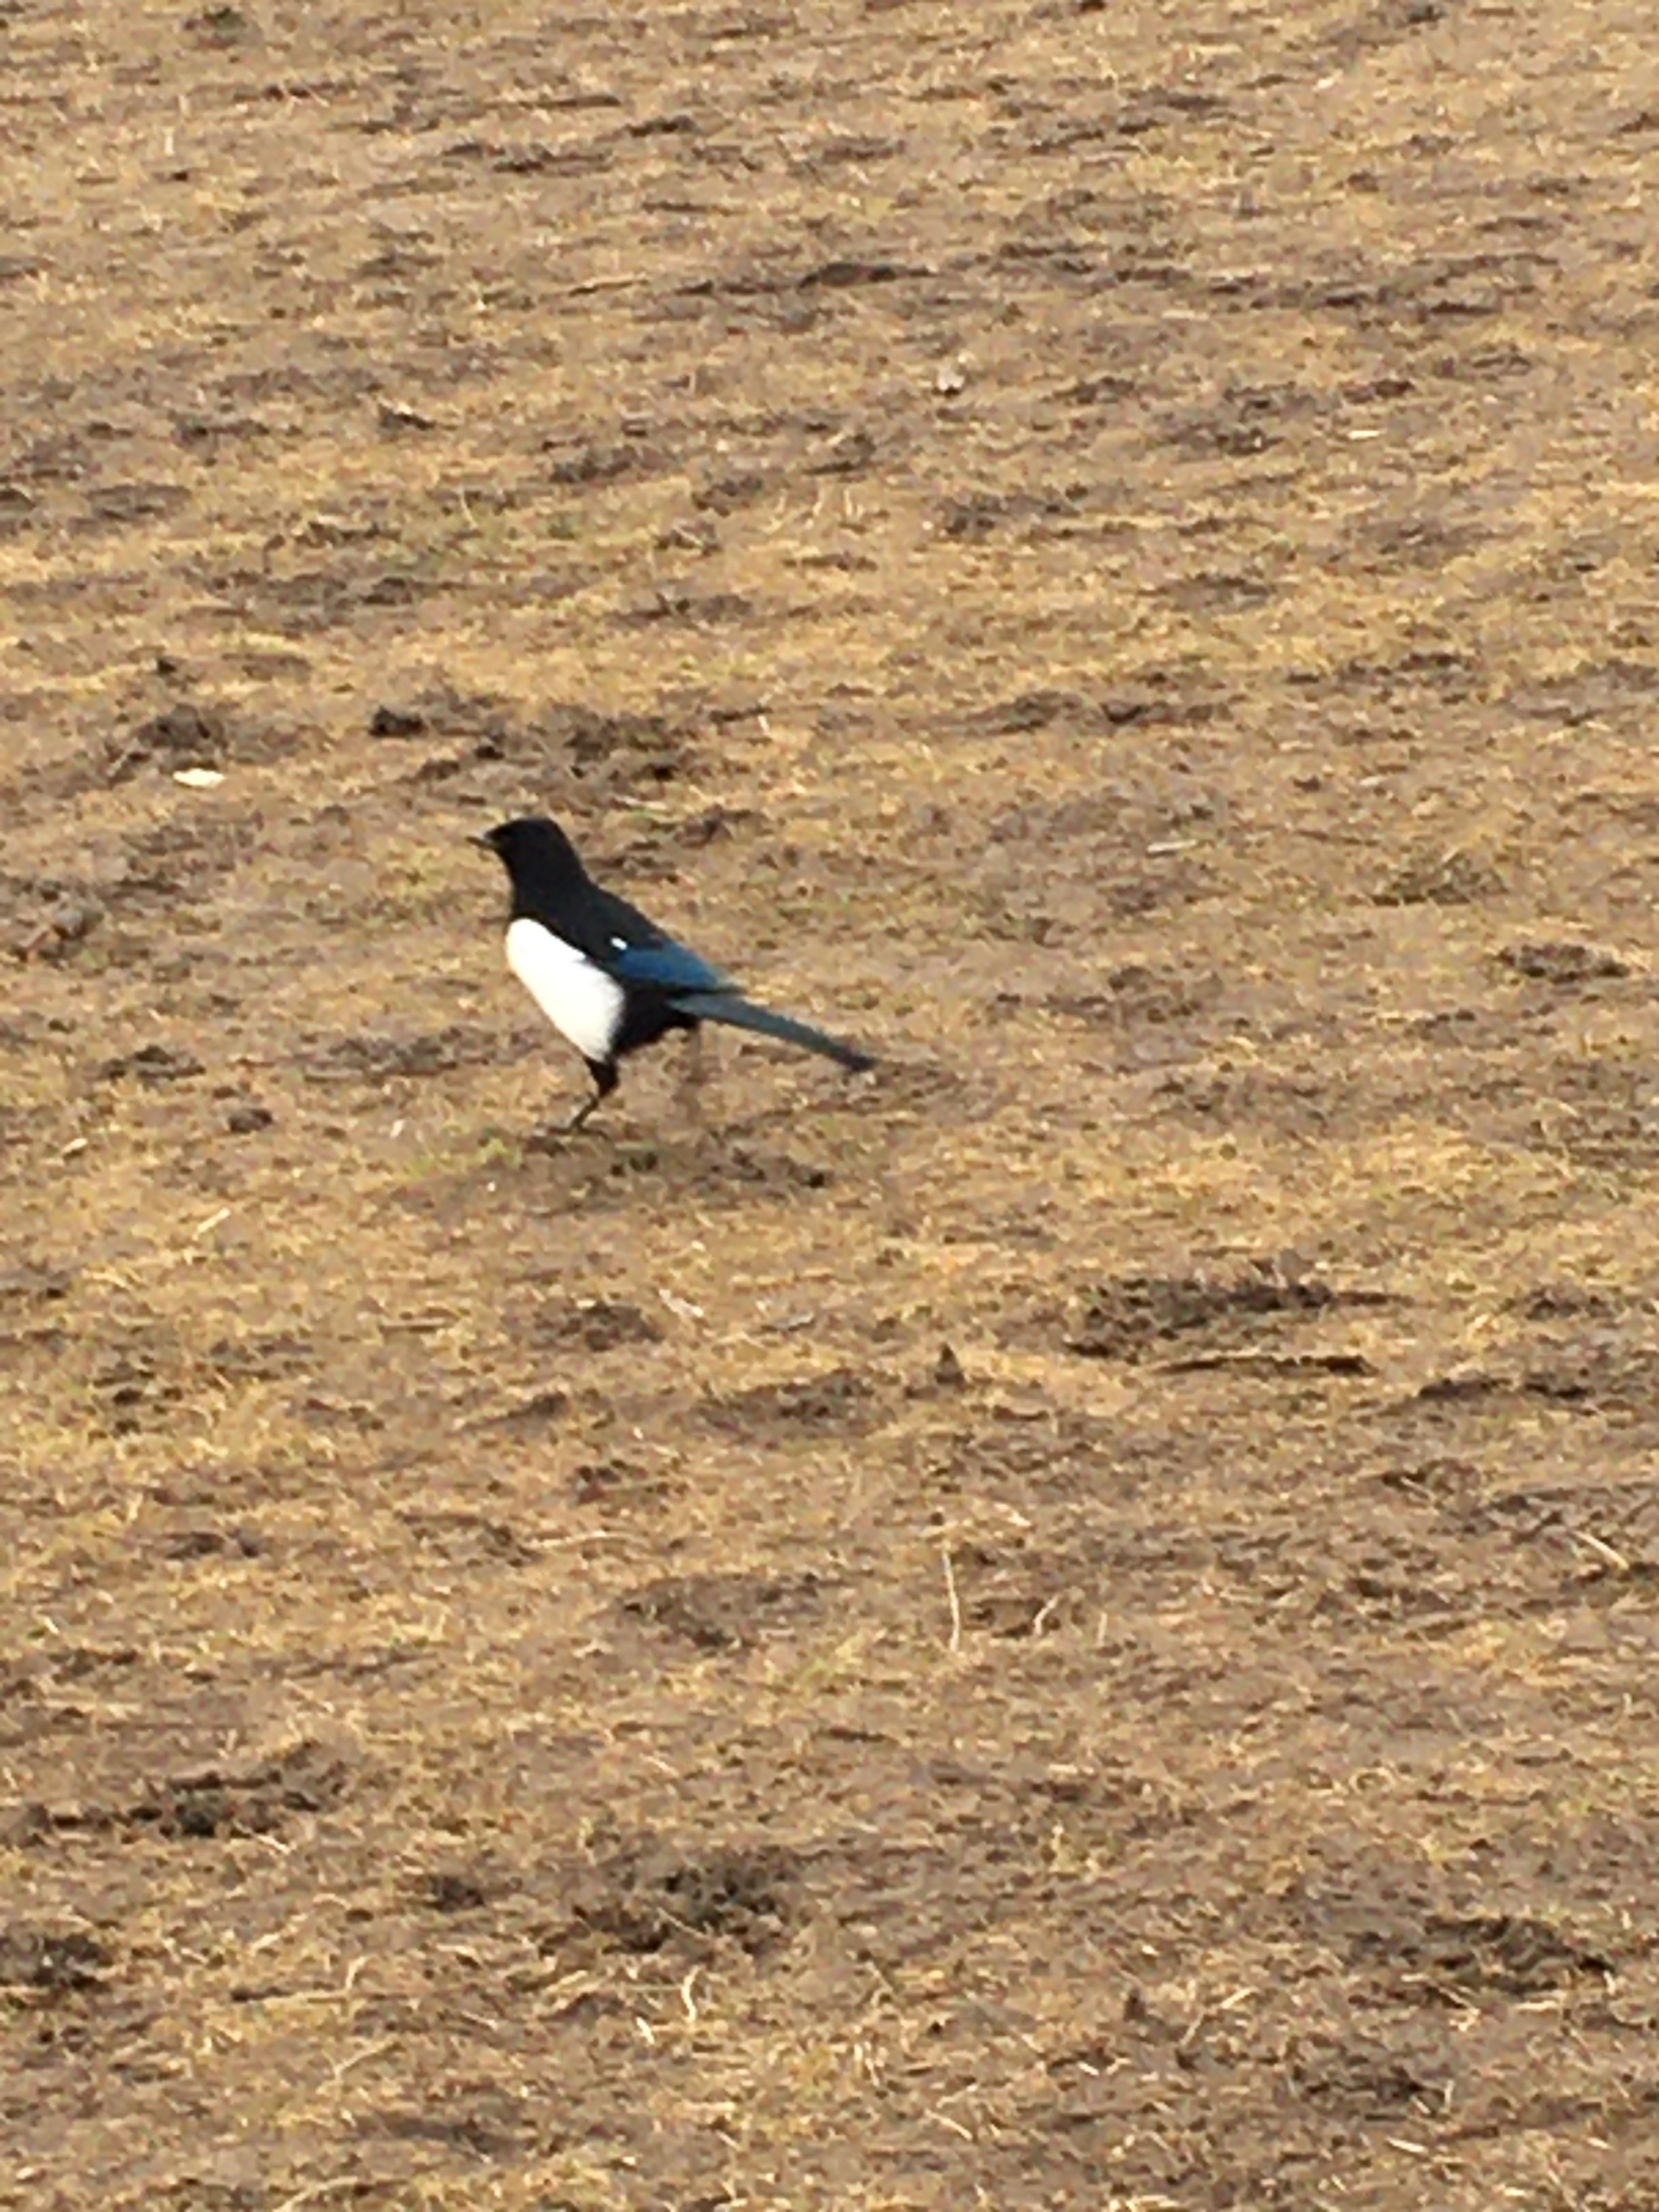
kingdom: Animalia
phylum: Chordata
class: Aves
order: Passeriformes
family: Corvidae
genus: Pica
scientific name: Pica pica
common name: Husskade
